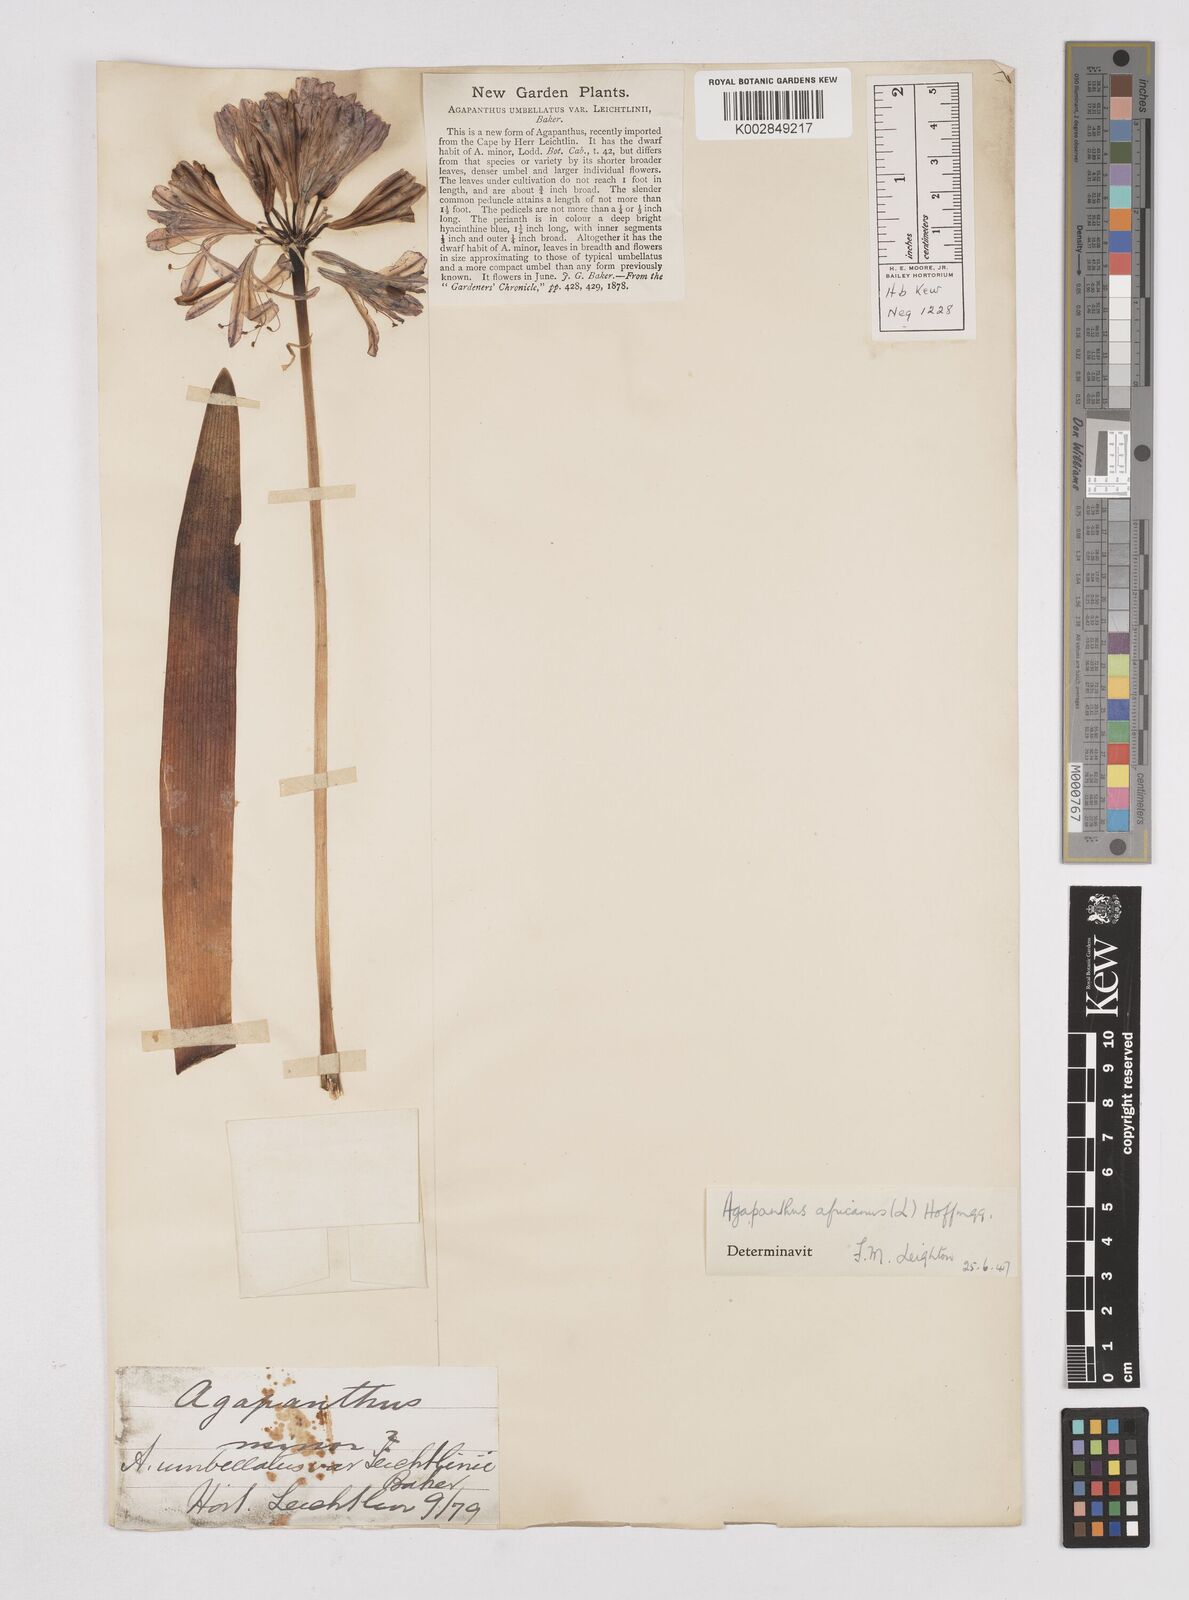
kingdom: Plantae
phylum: Tracheophyta
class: Liliopsida
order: Asparagales
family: Amaryllidaceae
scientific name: Amaryllidaceae
